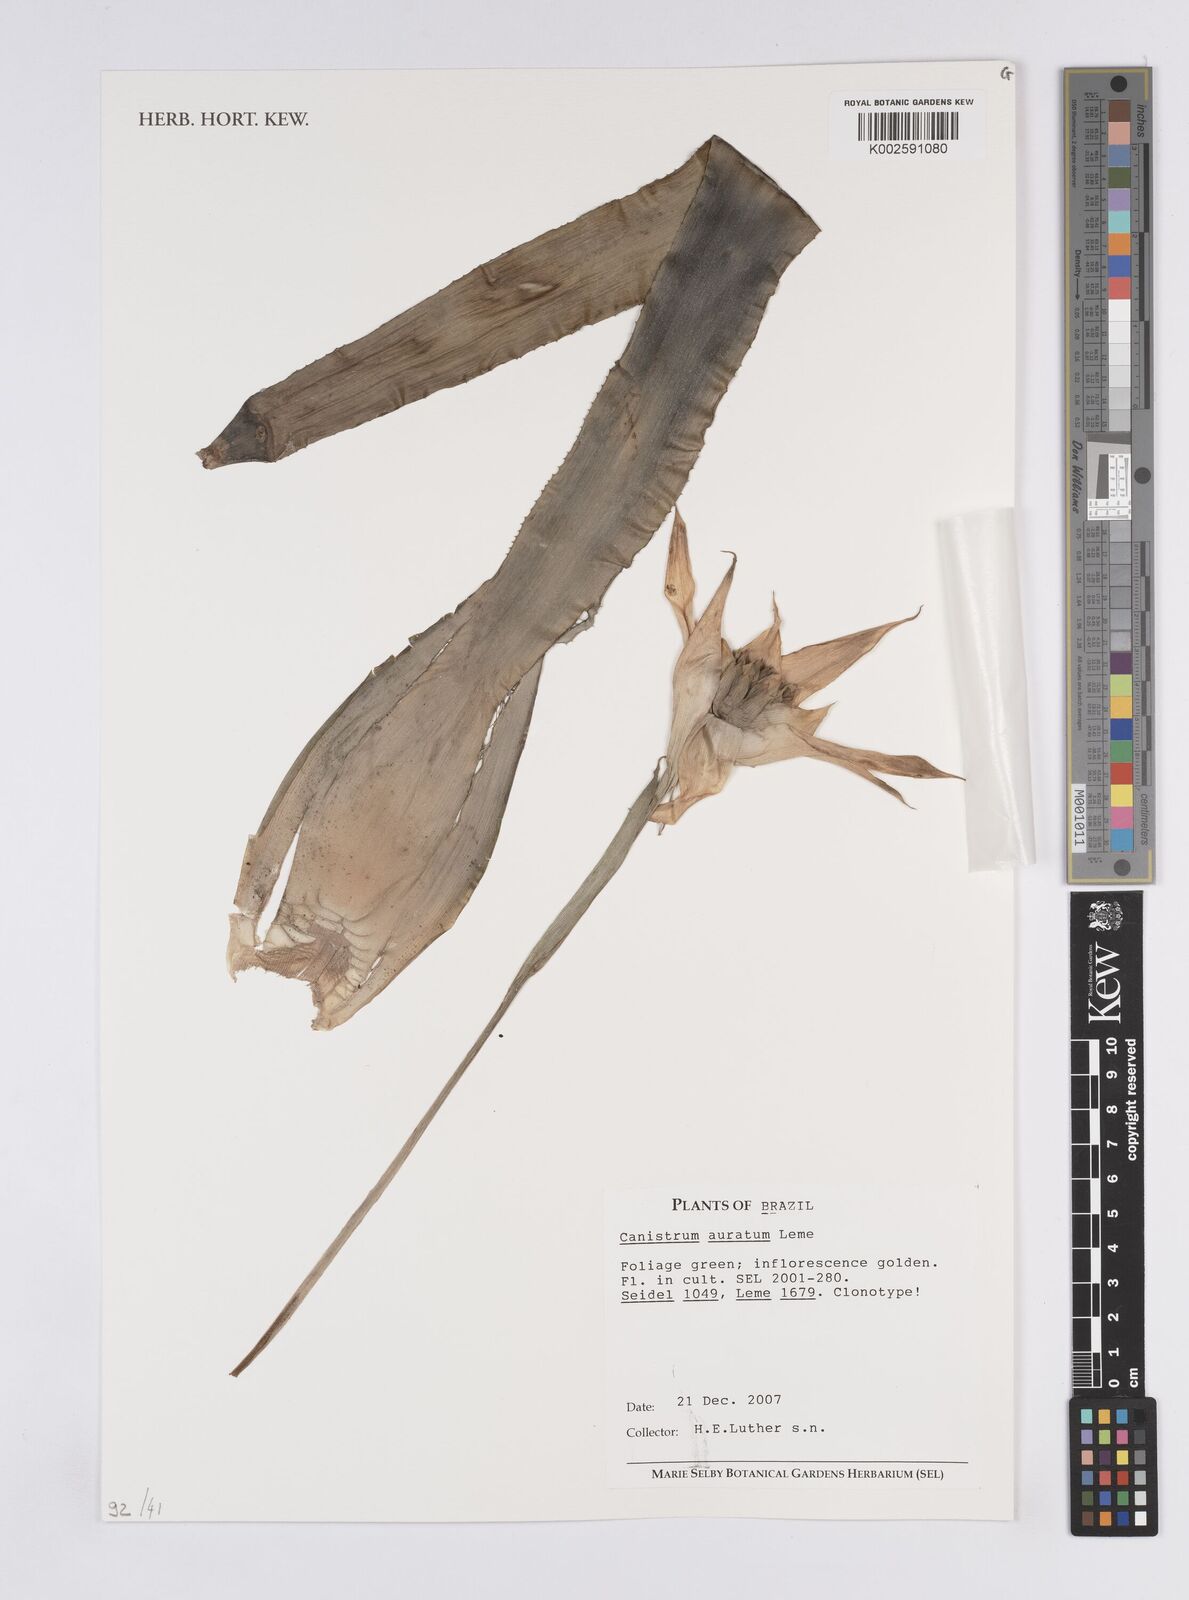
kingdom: Plantae
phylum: Tracheophyta
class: Liliopsida
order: Poales
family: Bromeliaceae
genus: Canistrum
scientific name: Canistrum auratum
